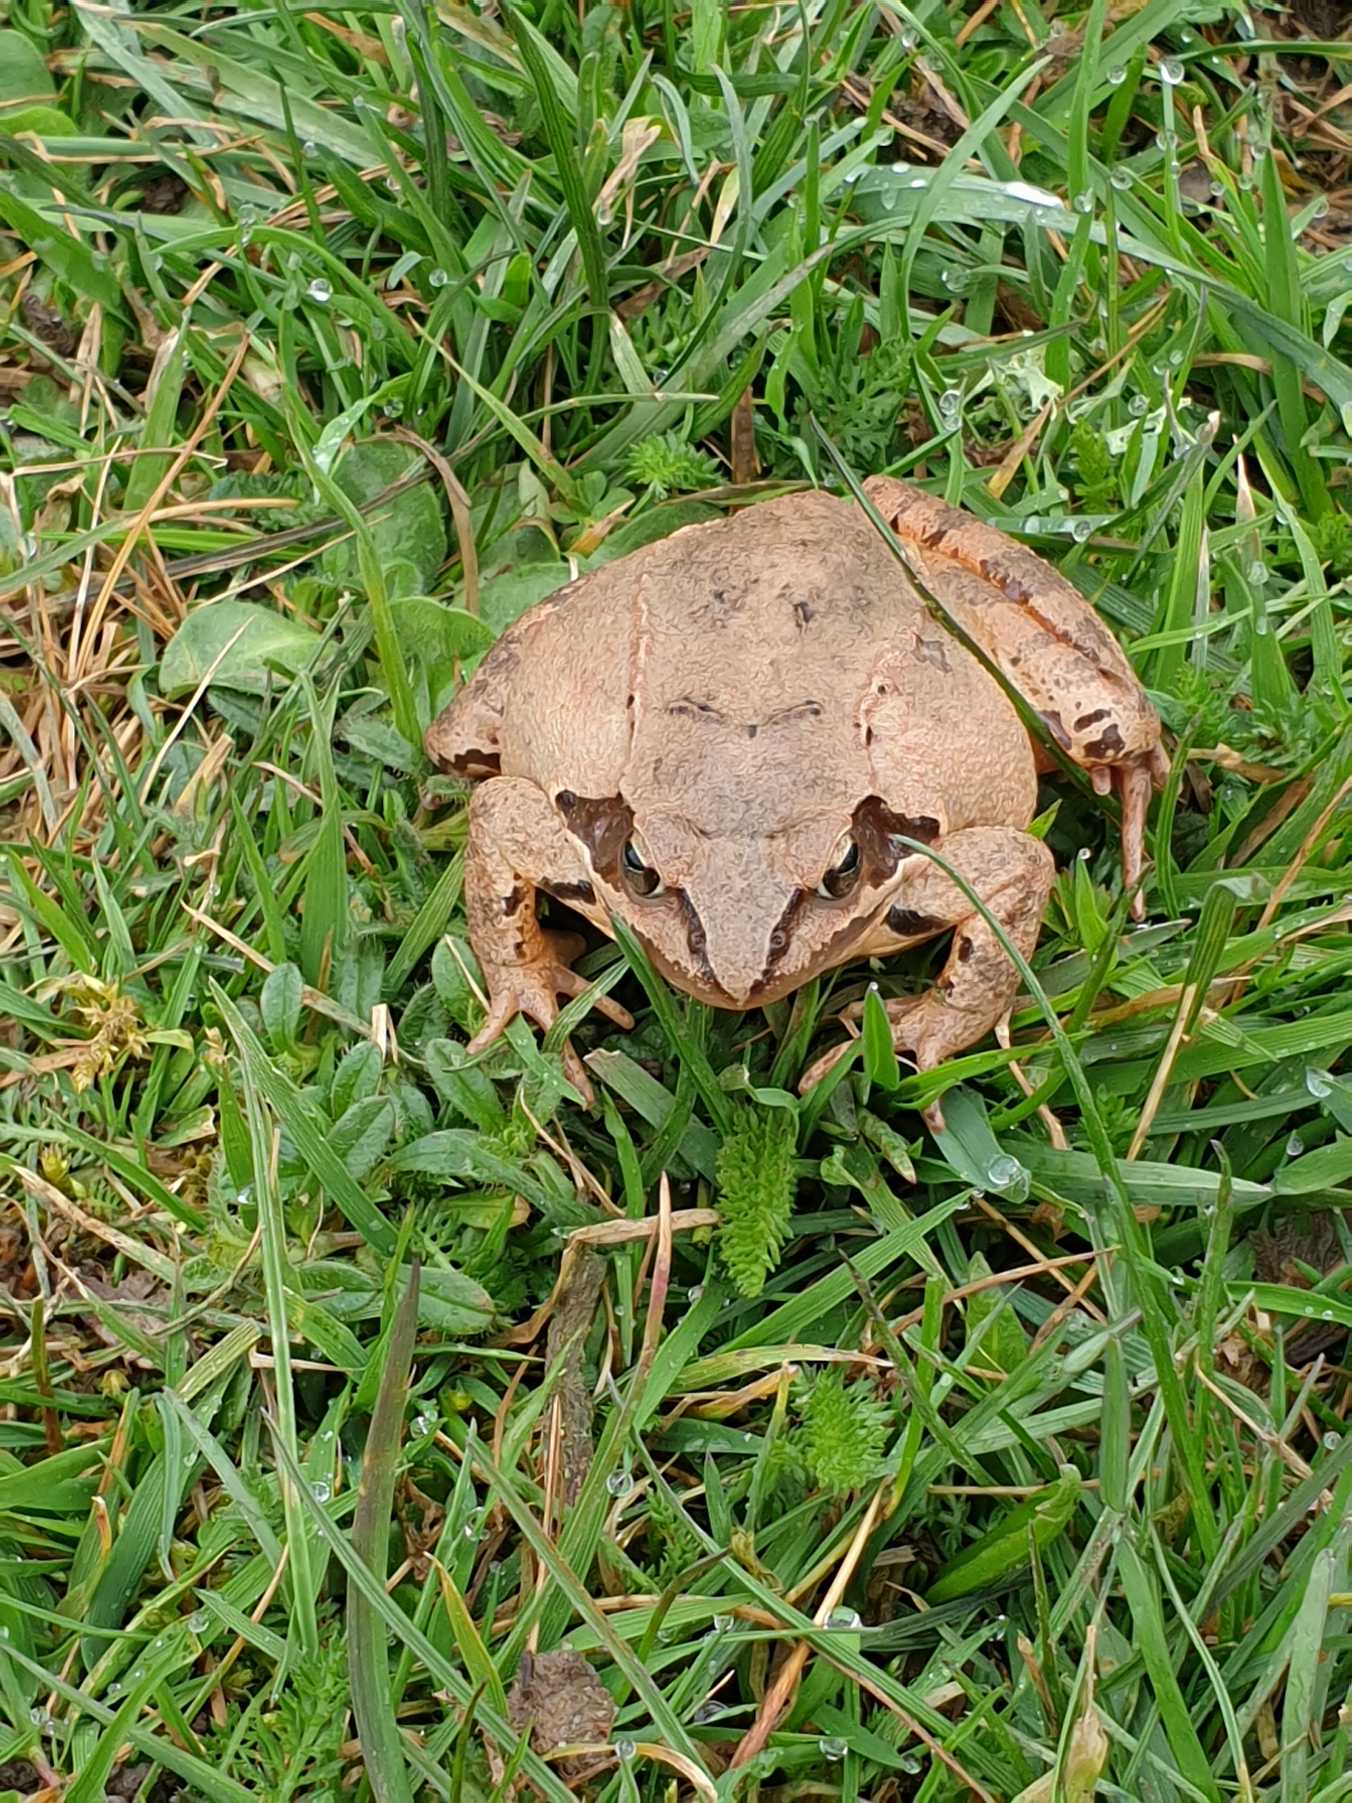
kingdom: Animalia
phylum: Chordata
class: Amphibia
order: Anura
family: Ranidae
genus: Rana
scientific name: Rana dalmatina
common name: Springfrø
